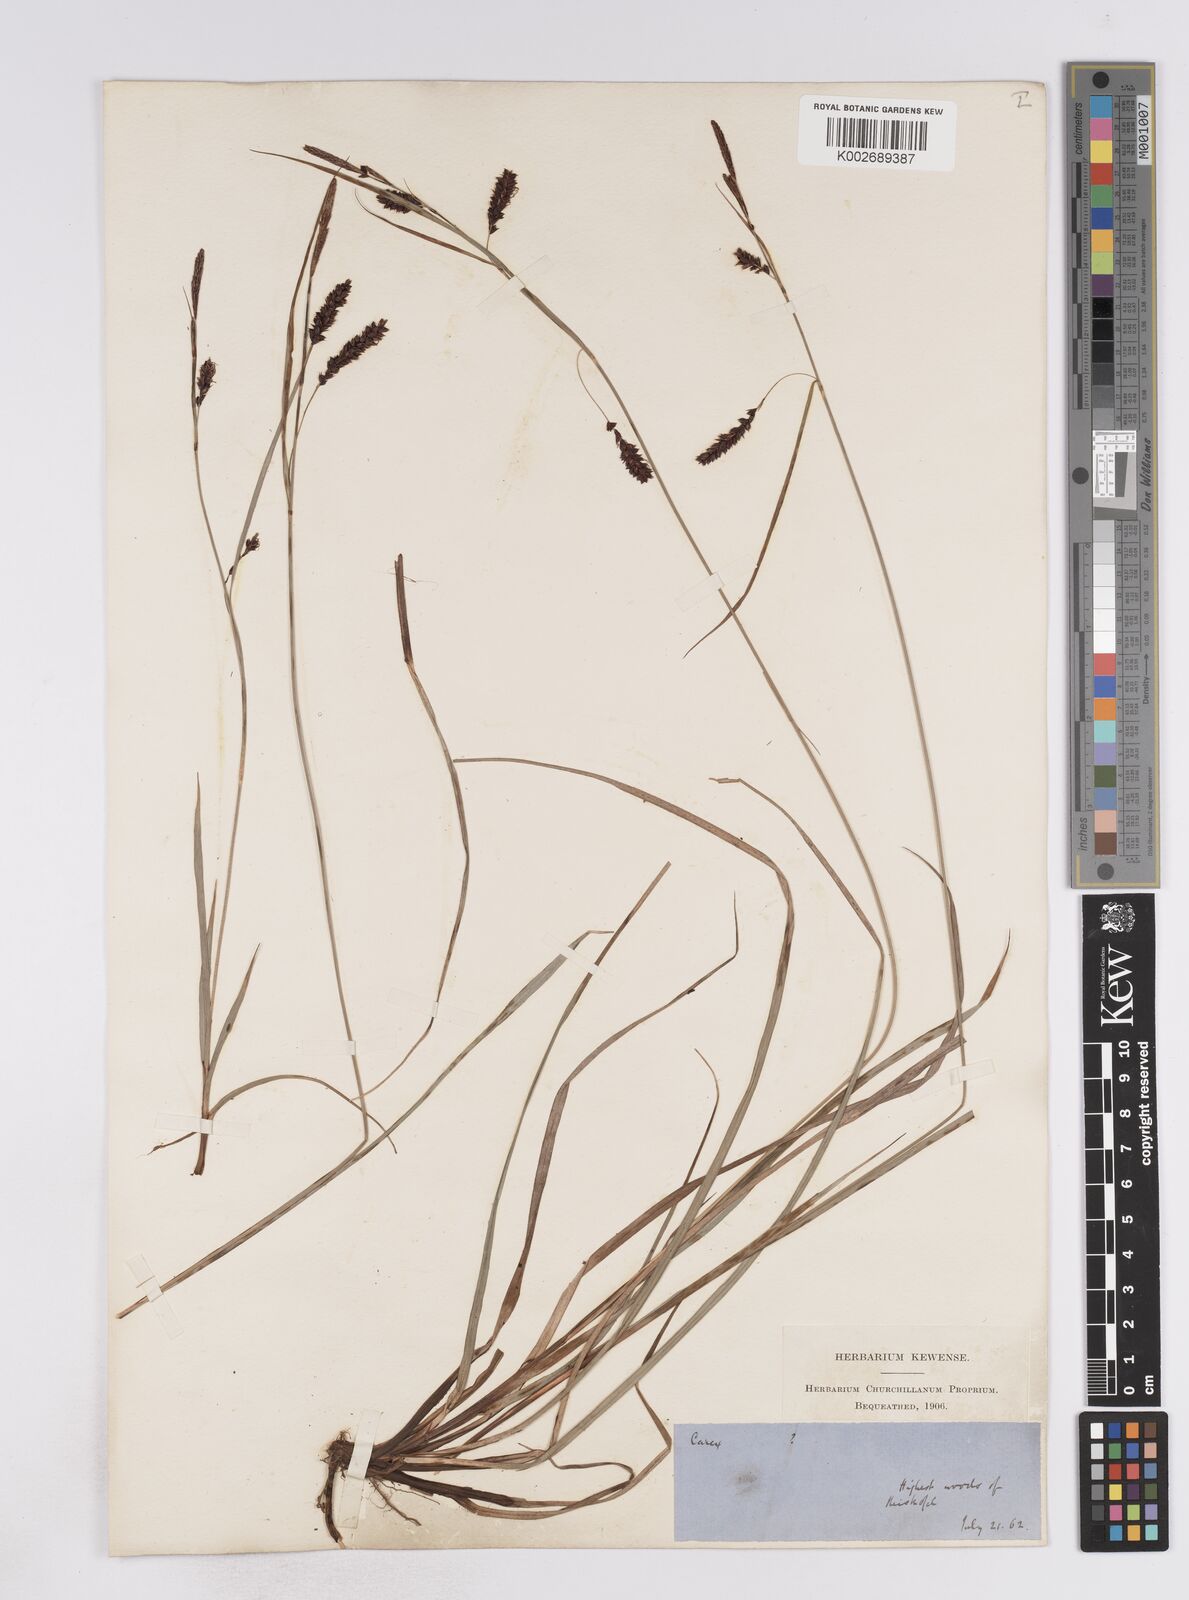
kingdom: Plantae
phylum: Tracheophyta
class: Liliopsida
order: Poales
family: Cyperaceae
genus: Carex
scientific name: Carex flacca
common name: Glaucous sedge
